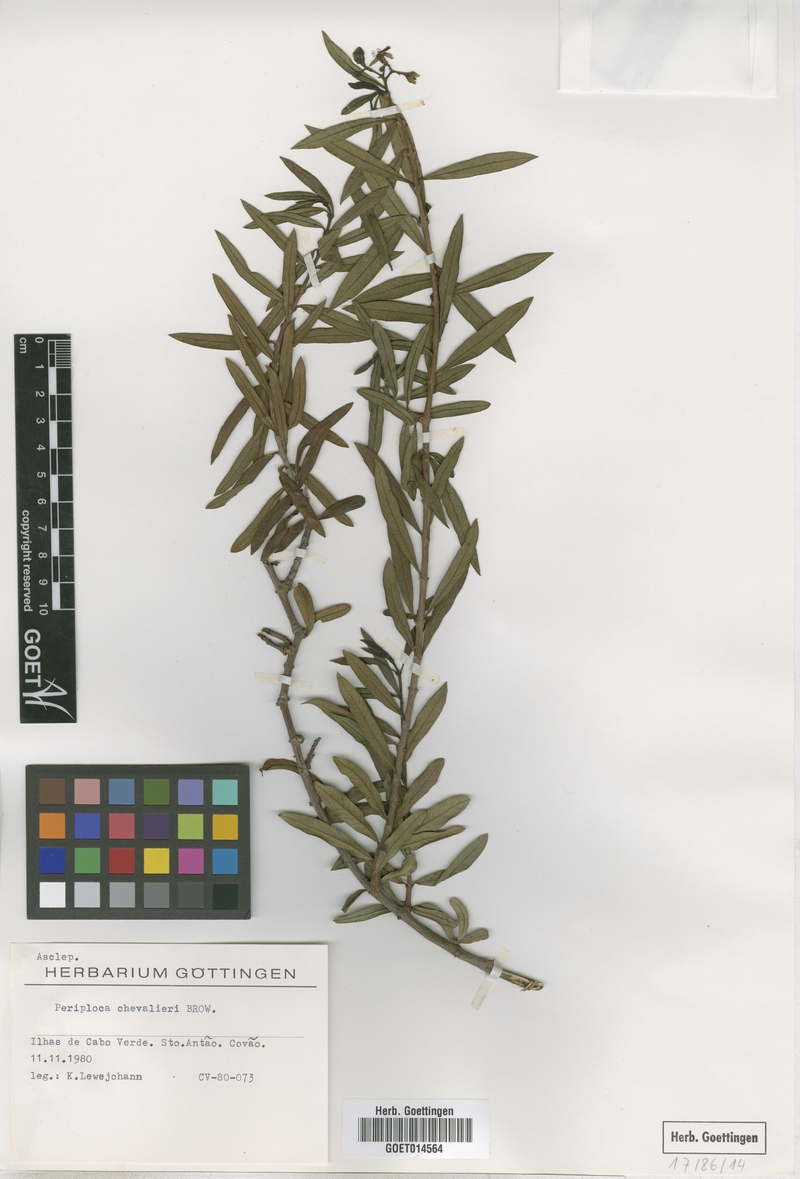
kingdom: Plantae
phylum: Tracheophyta
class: Magnoliopsida
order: Gentianales
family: Apocynaceae
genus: Periploca
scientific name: Periploca chevalieri
